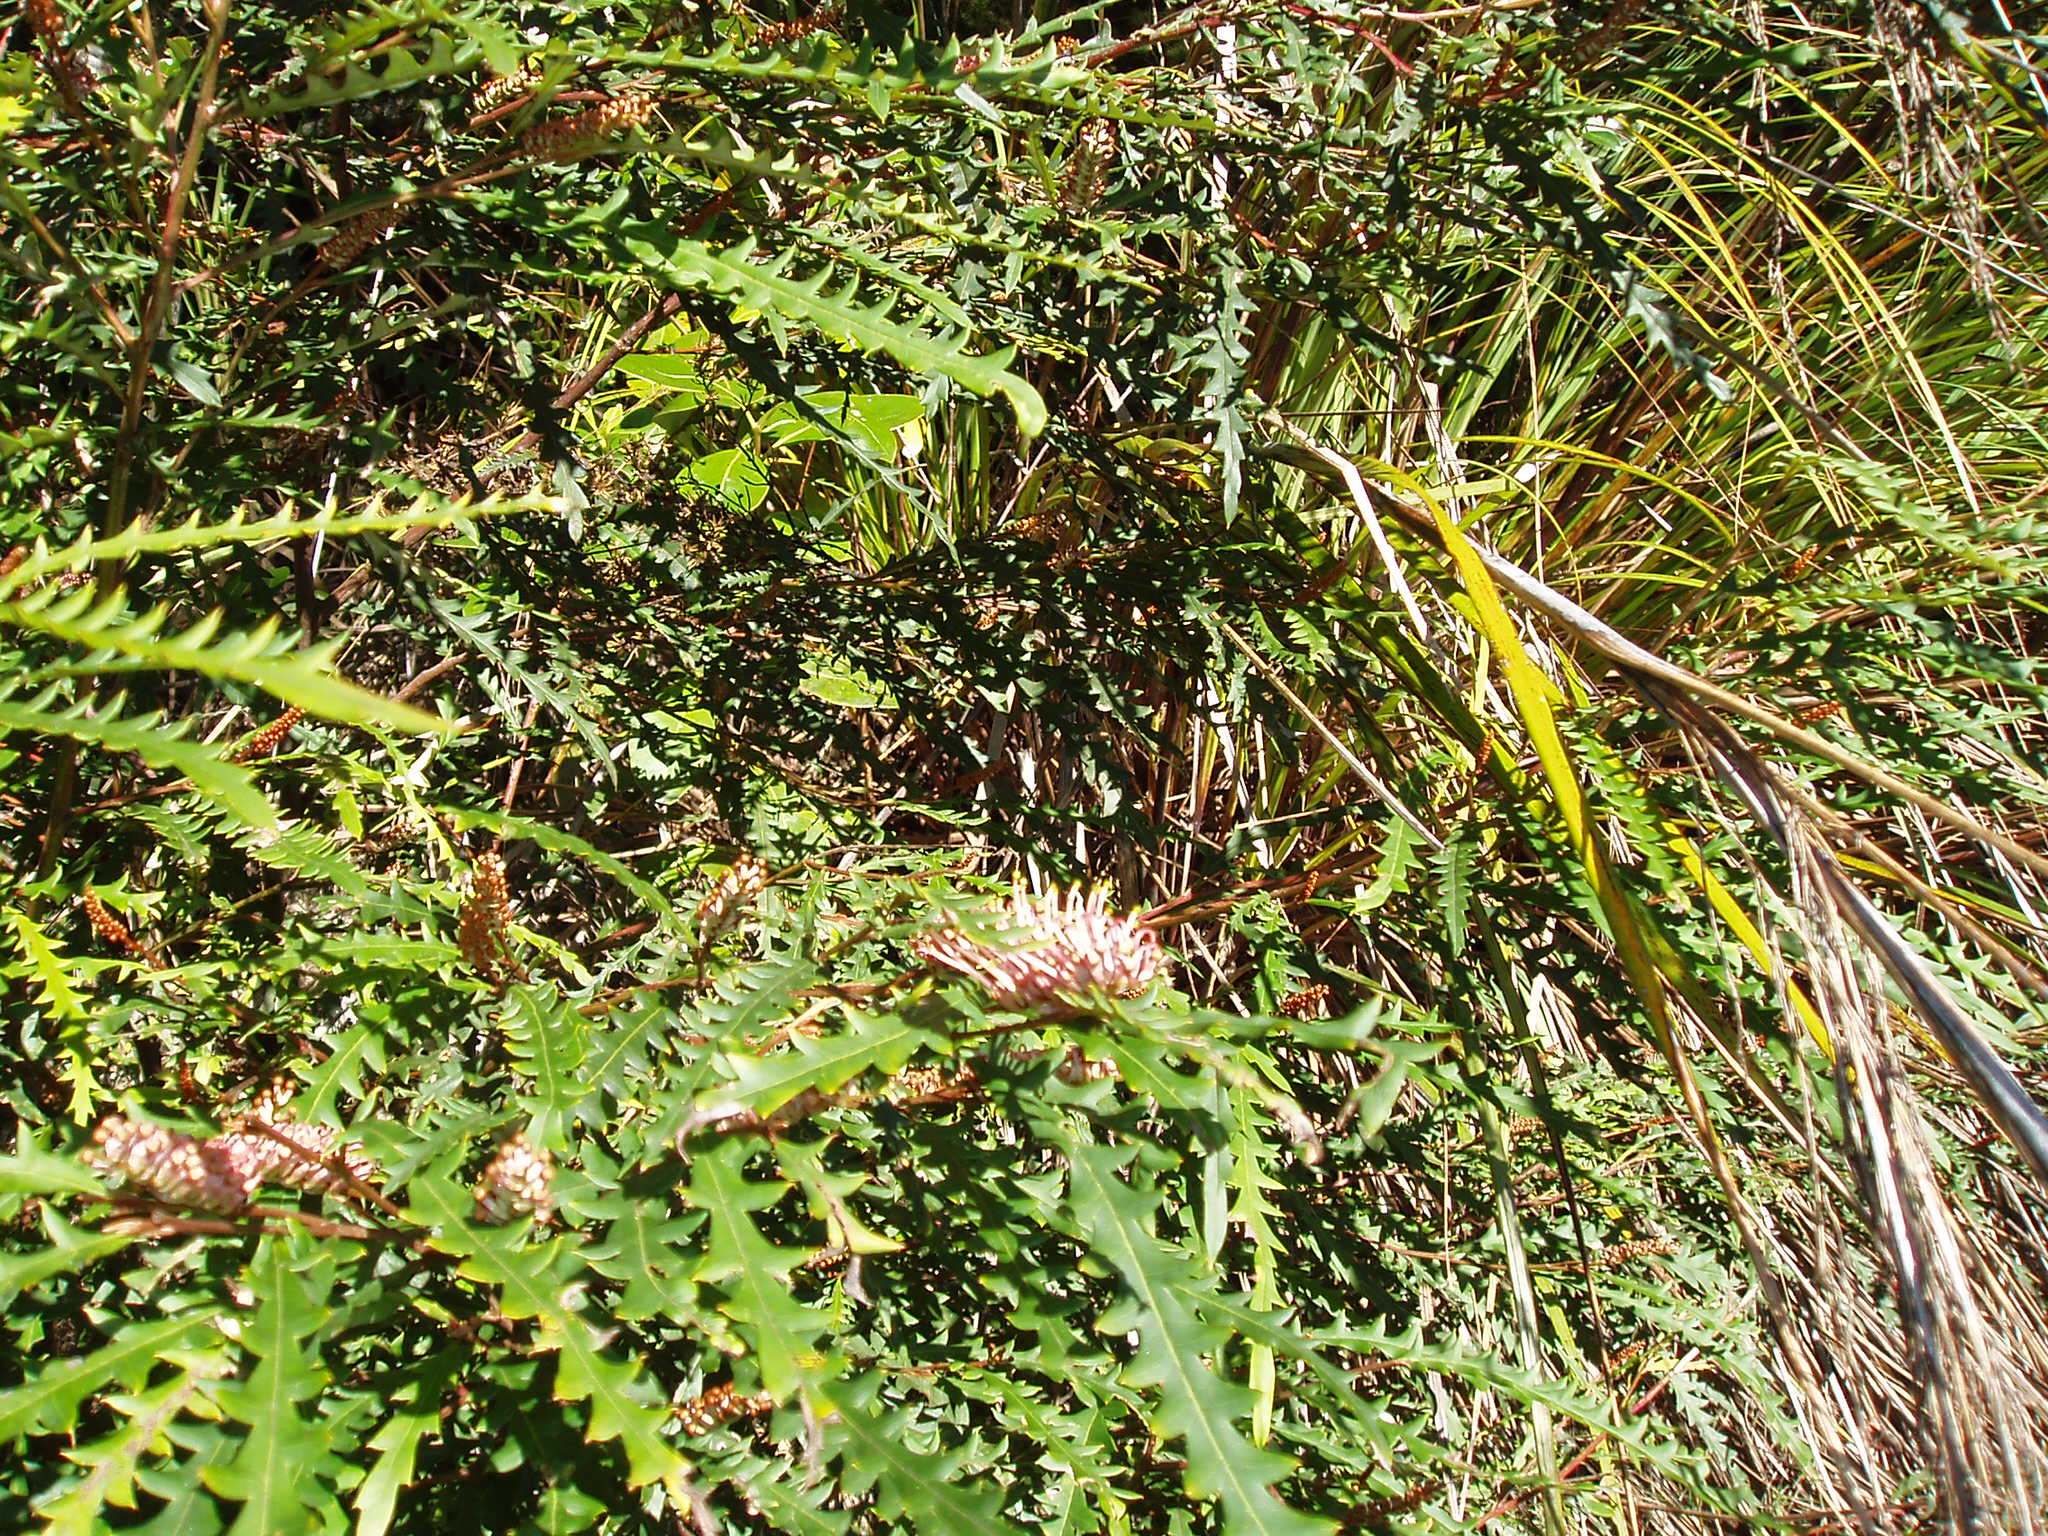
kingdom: Plantae
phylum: Tracheophyta
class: Magnoliopsida
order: Proteales
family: Proteaceae
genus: Grevillea
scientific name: Grevillea aspleniifolia
